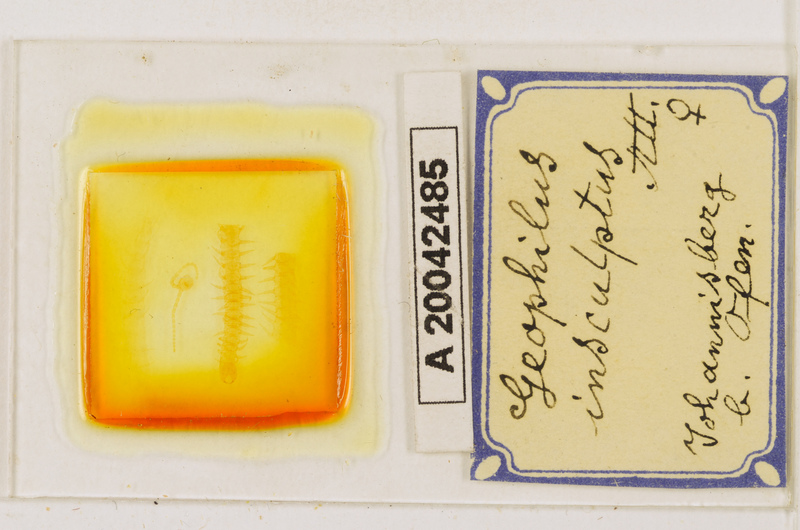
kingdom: Animalia
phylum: Arthropoda
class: Chilopoda
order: Geophilomorpha
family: Geophilidae
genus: Geophilus
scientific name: Geophilus insculptus
